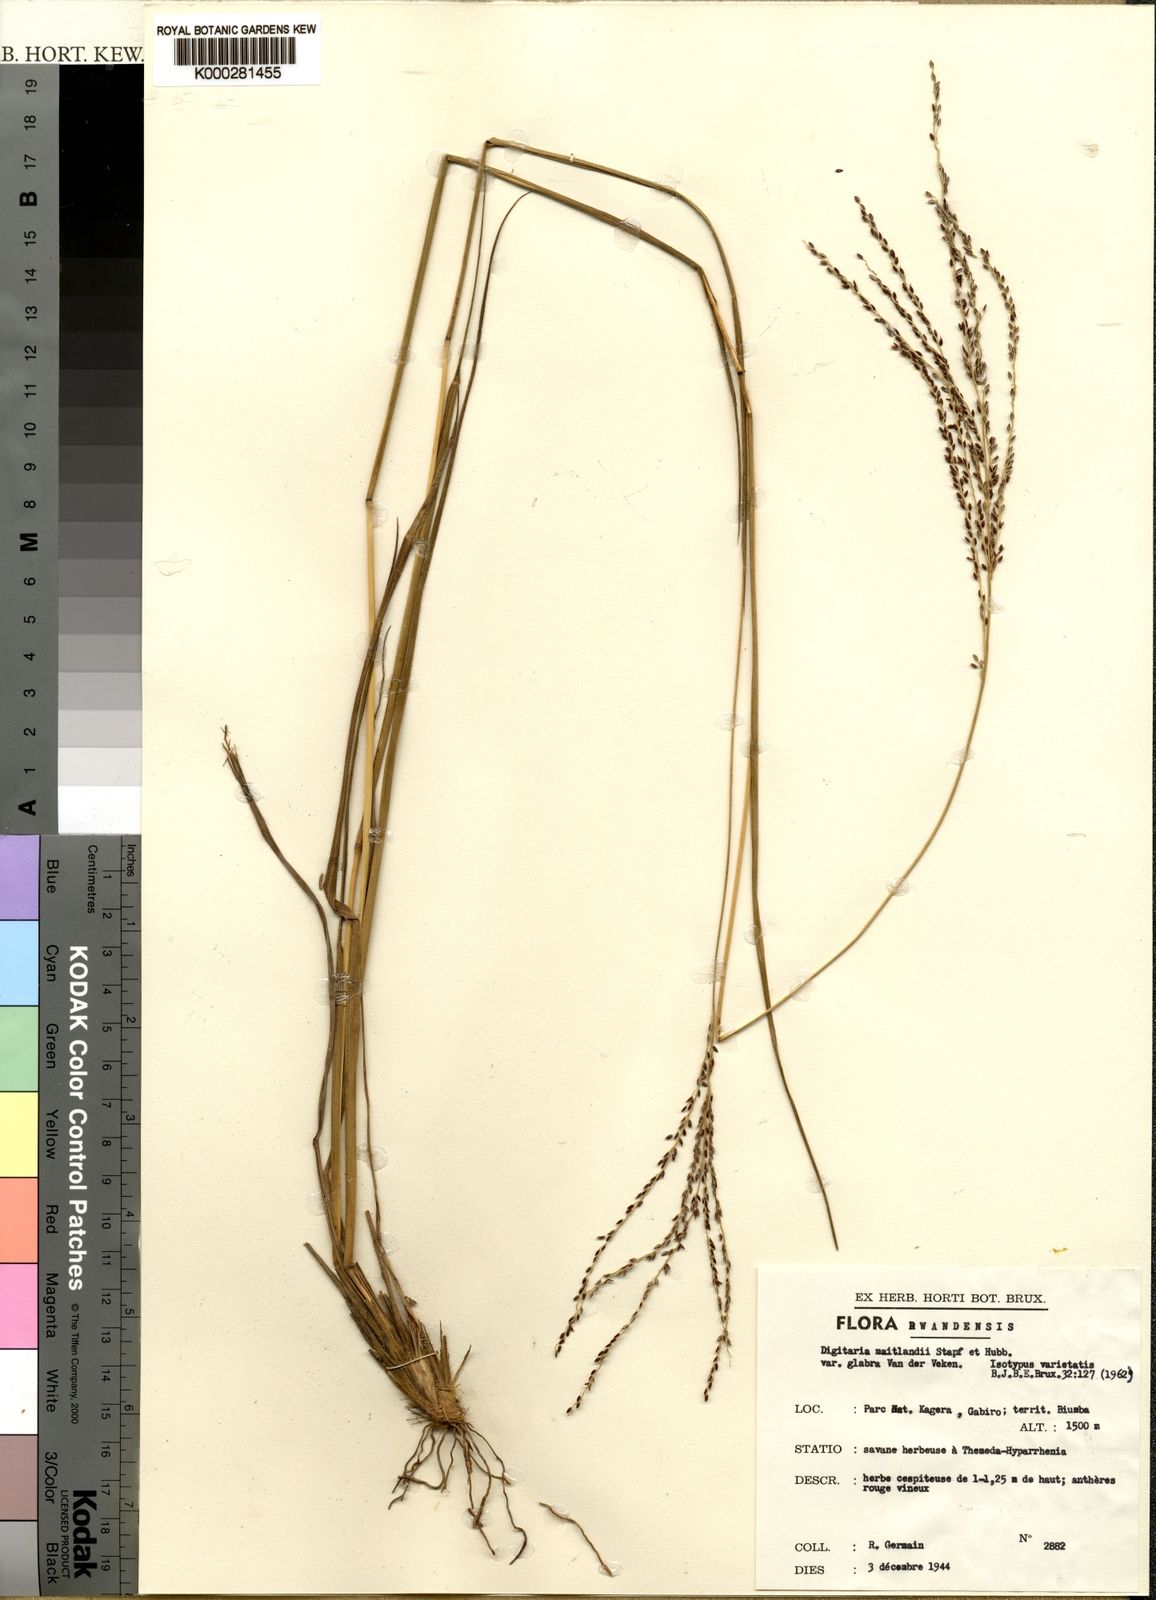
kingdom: Plantae
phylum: Tracheophyta
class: Liliopsida
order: Poales
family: Poaceae
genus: Digitaria
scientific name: Digitaria maitlandii
